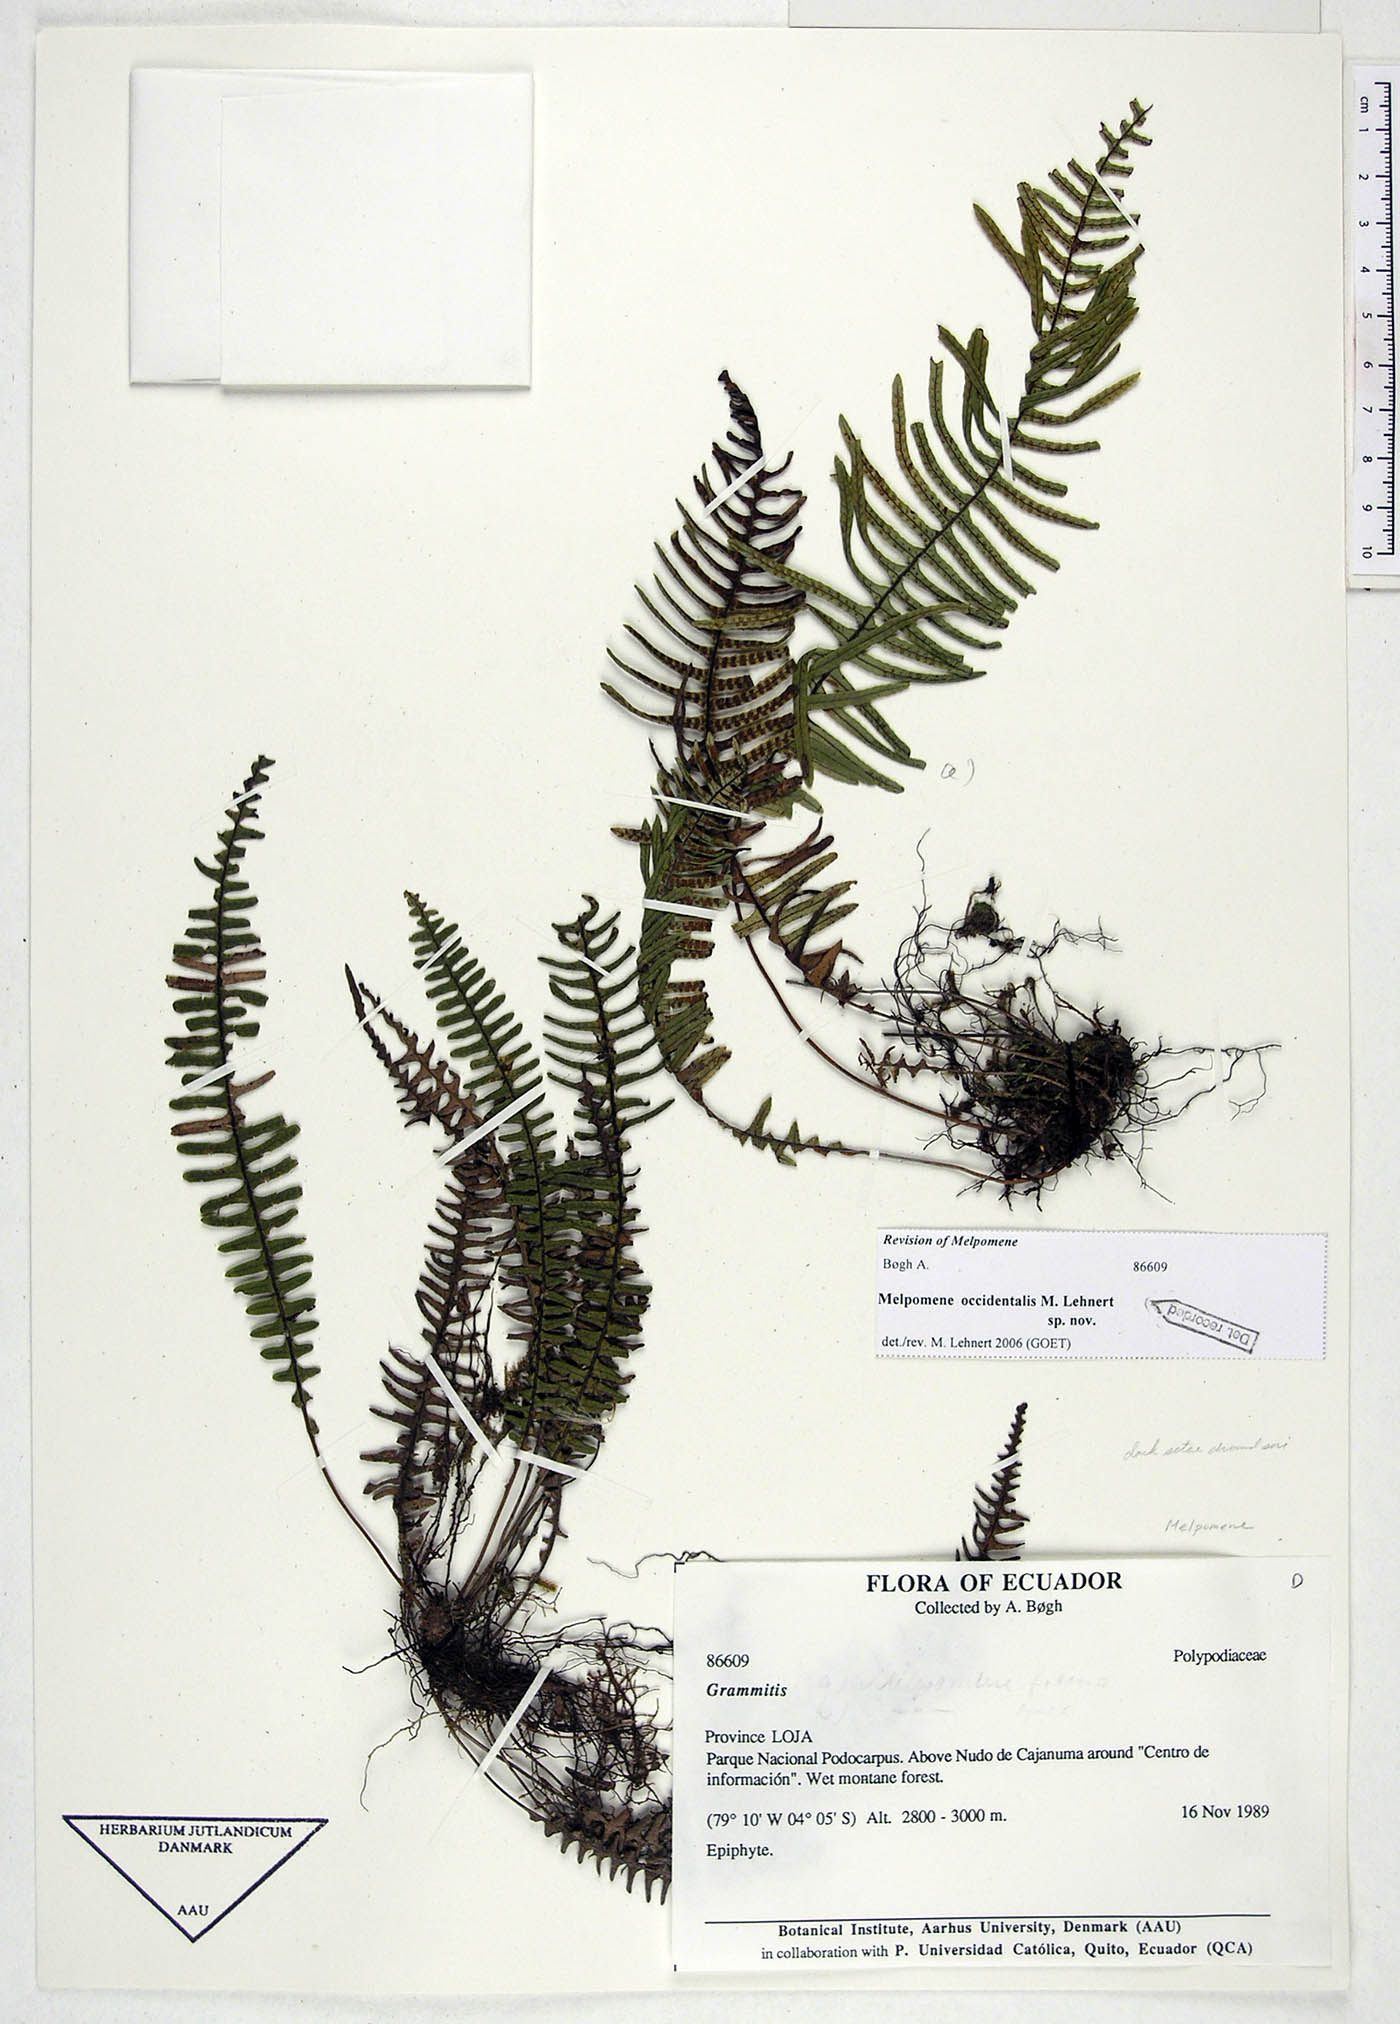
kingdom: Plantae
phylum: Tracheophyta
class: Polypodiopsida
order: Polypodiales
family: Polypodiaceae
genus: Melpomene
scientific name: Melpomene occidentalis
